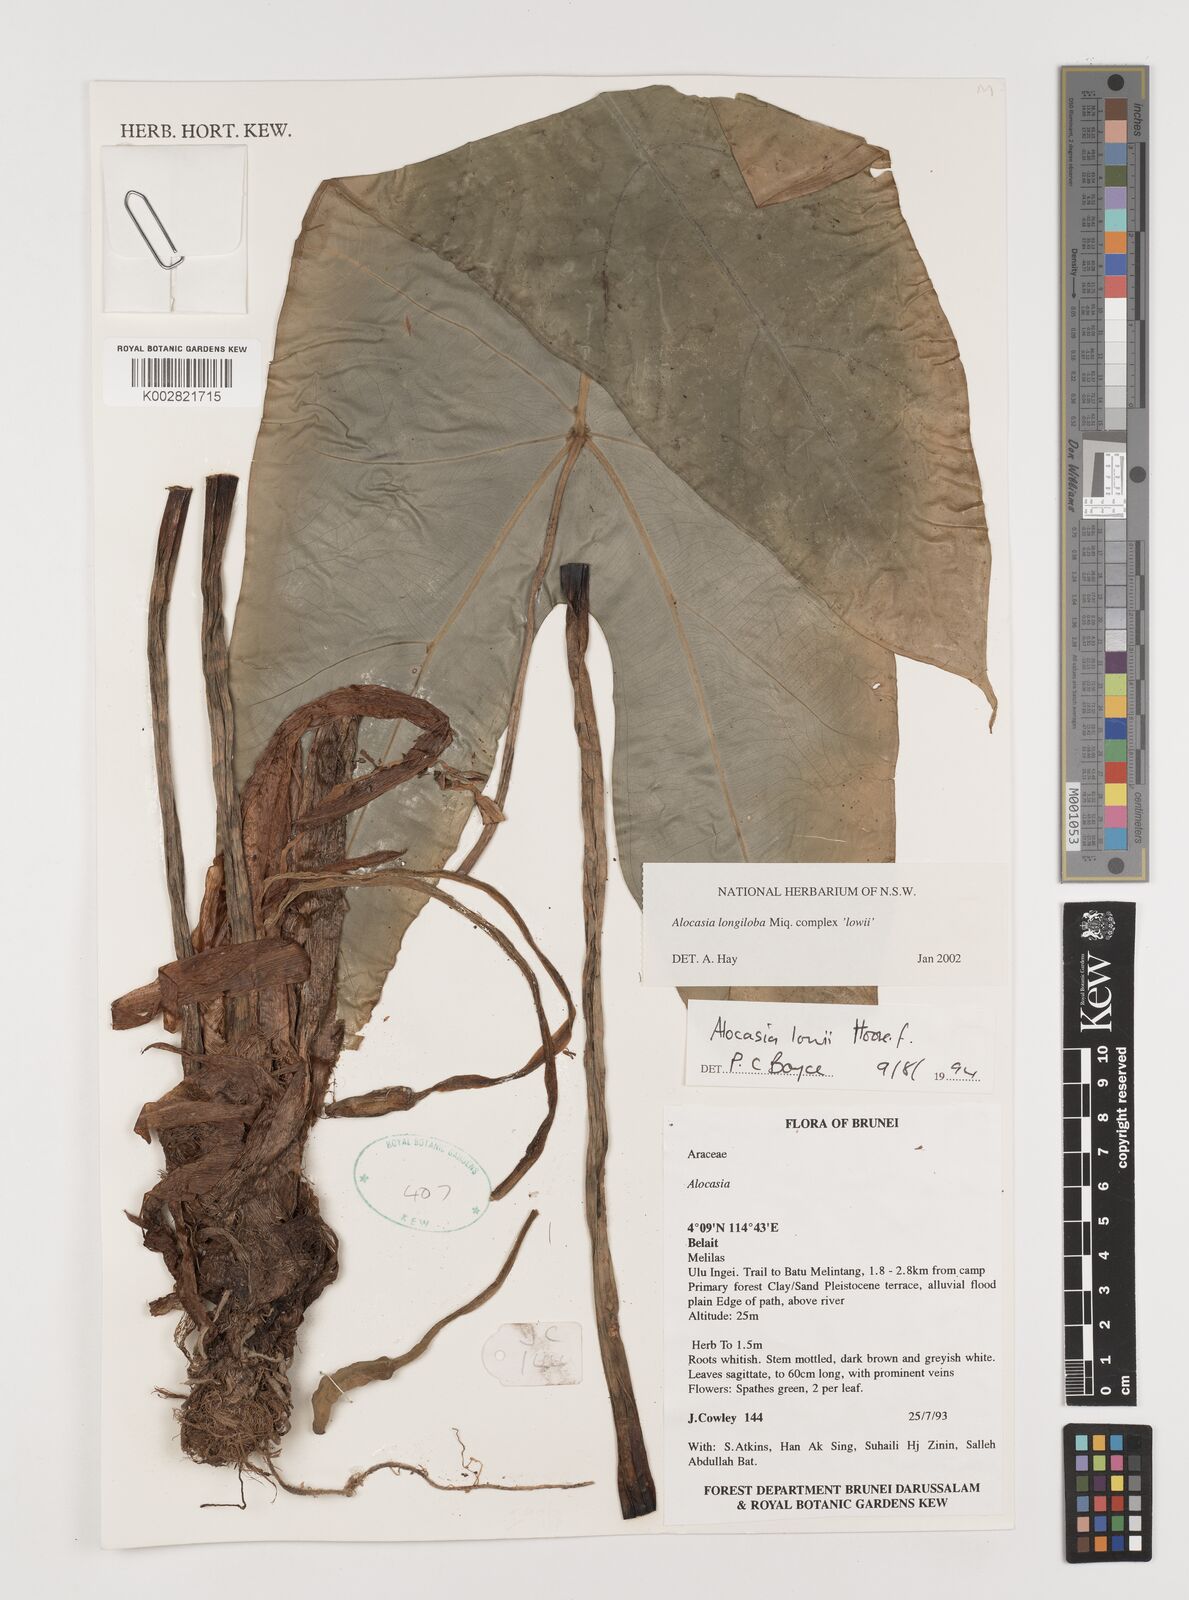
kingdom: Plantae
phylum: Tracheophyta
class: Liliopsida
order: Alismatales
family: Araceae
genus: Alocasia
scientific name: Alocasia longiloba
